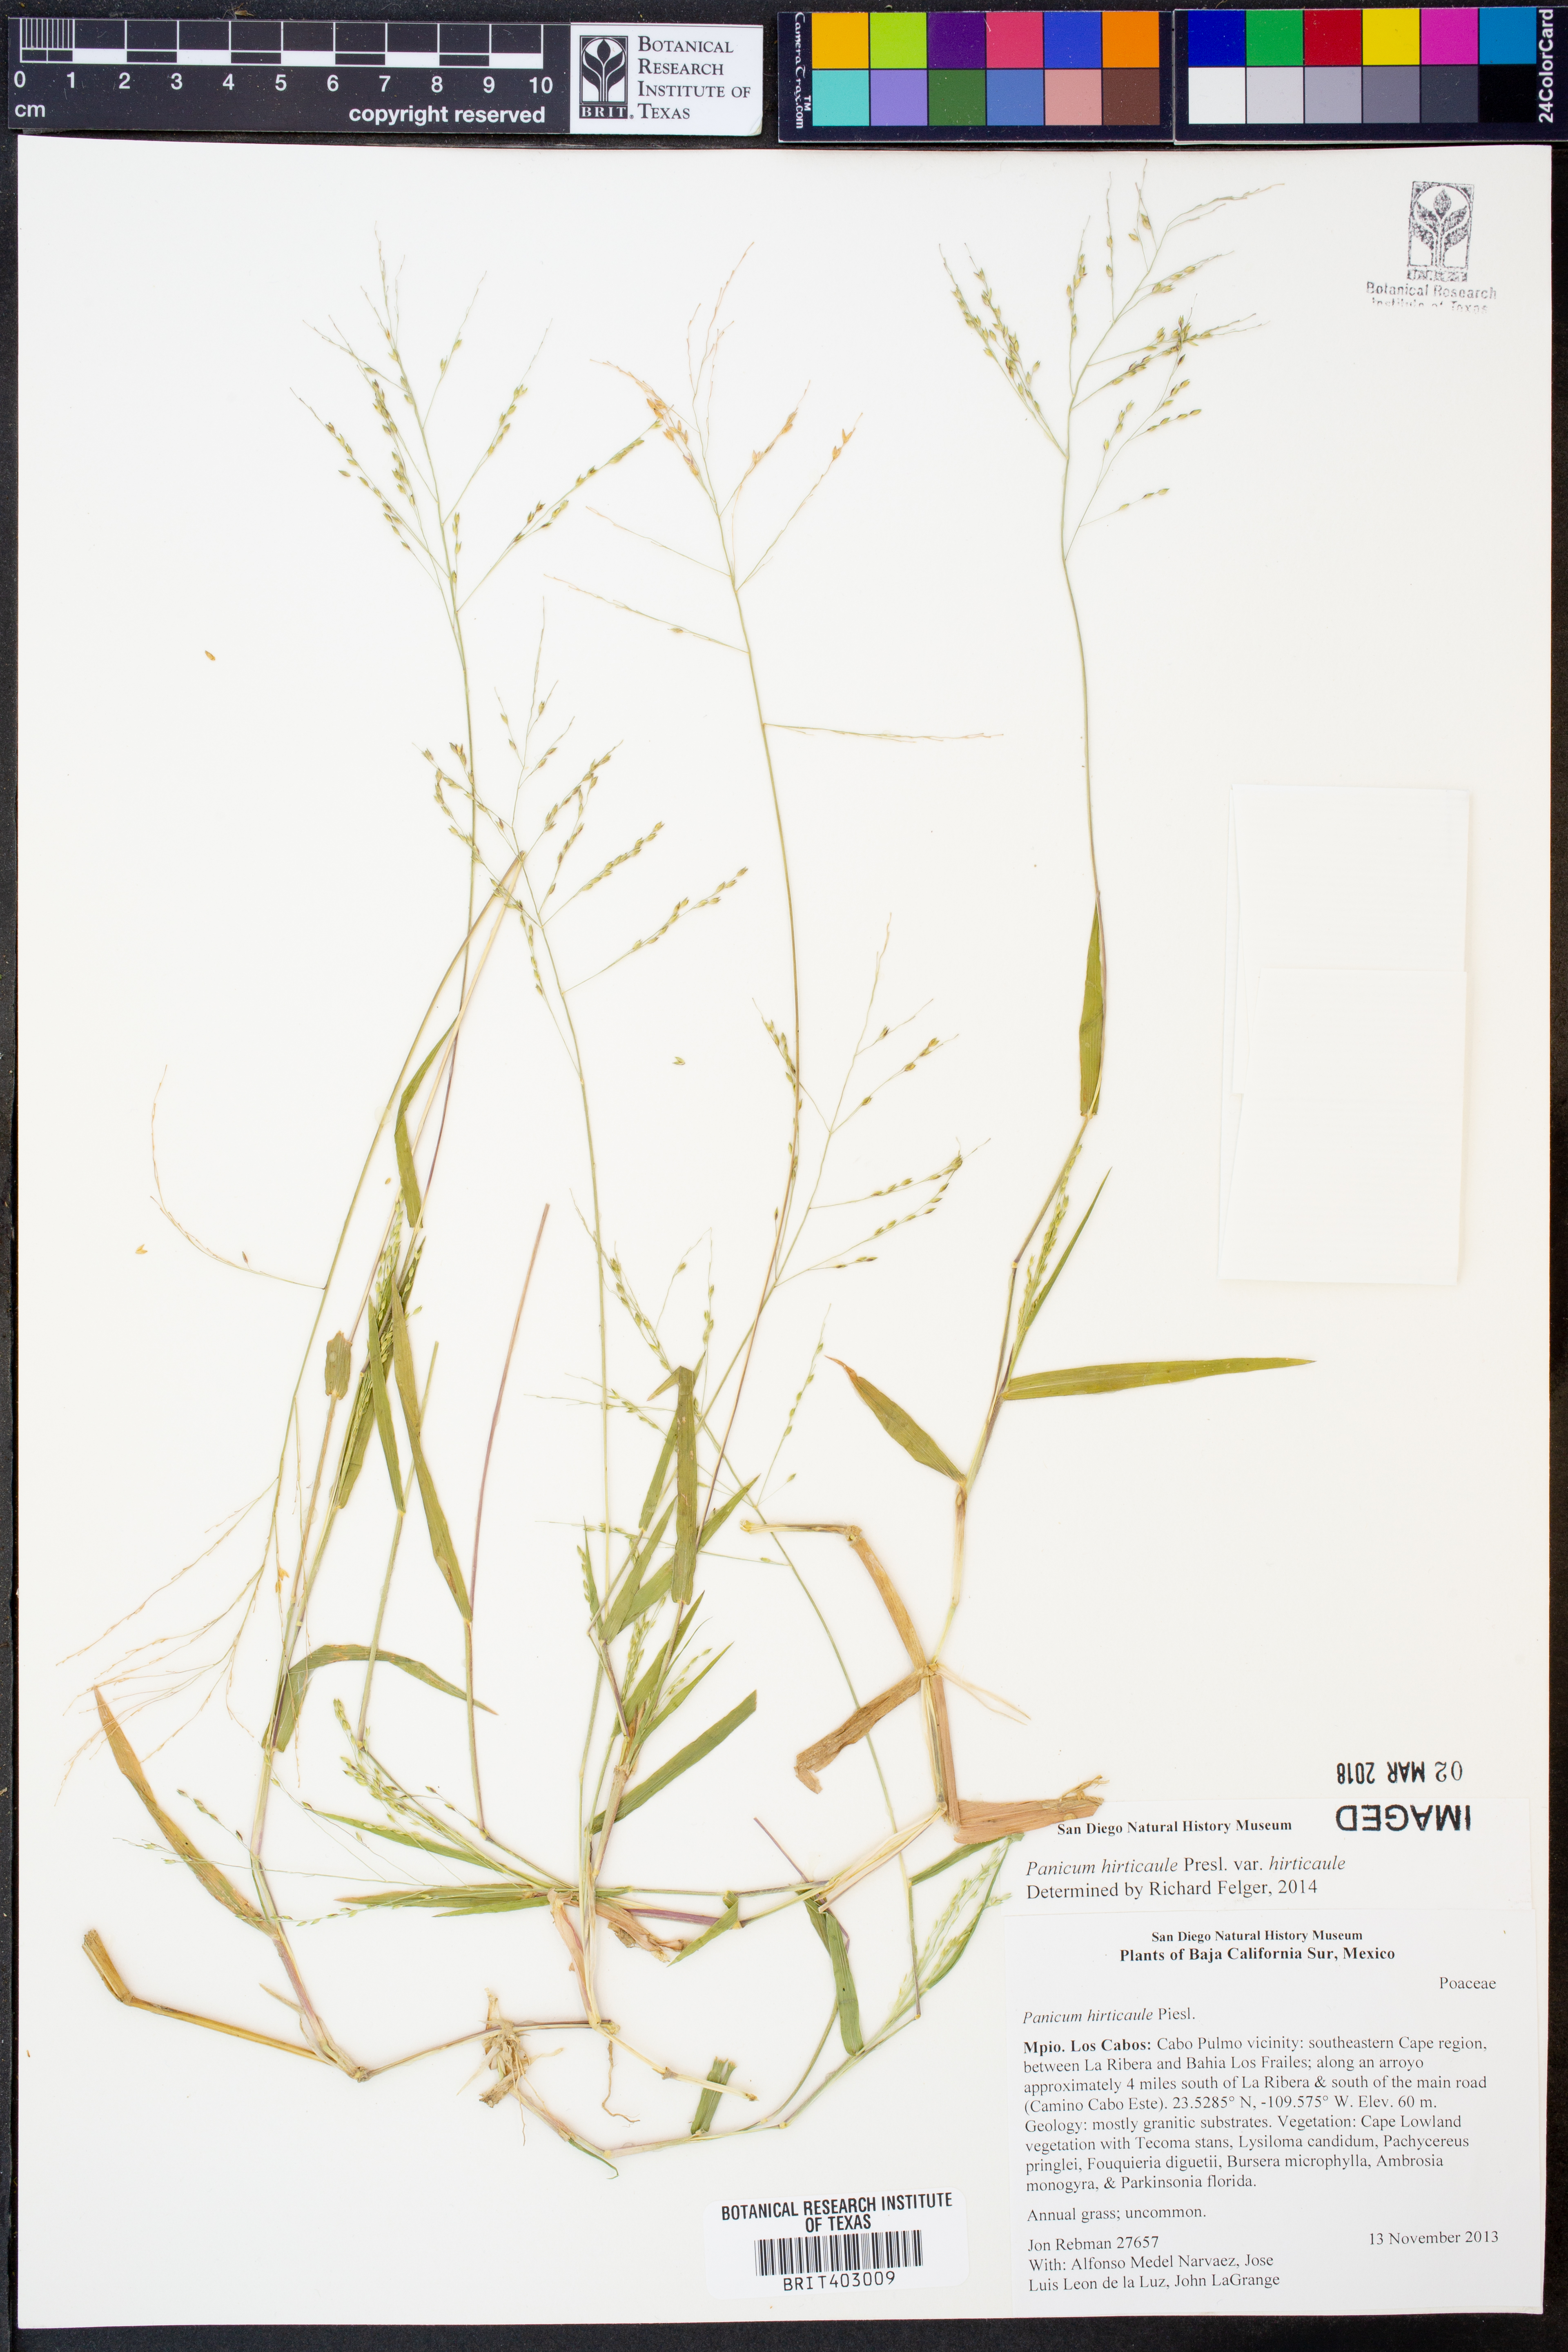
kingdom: Plantae
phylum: Tracheophyta
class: Liliopsida
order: Poales
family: Poaceae
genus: Panicum
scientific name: Panicum hirticaule
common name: Rough-stalk witchgrass
